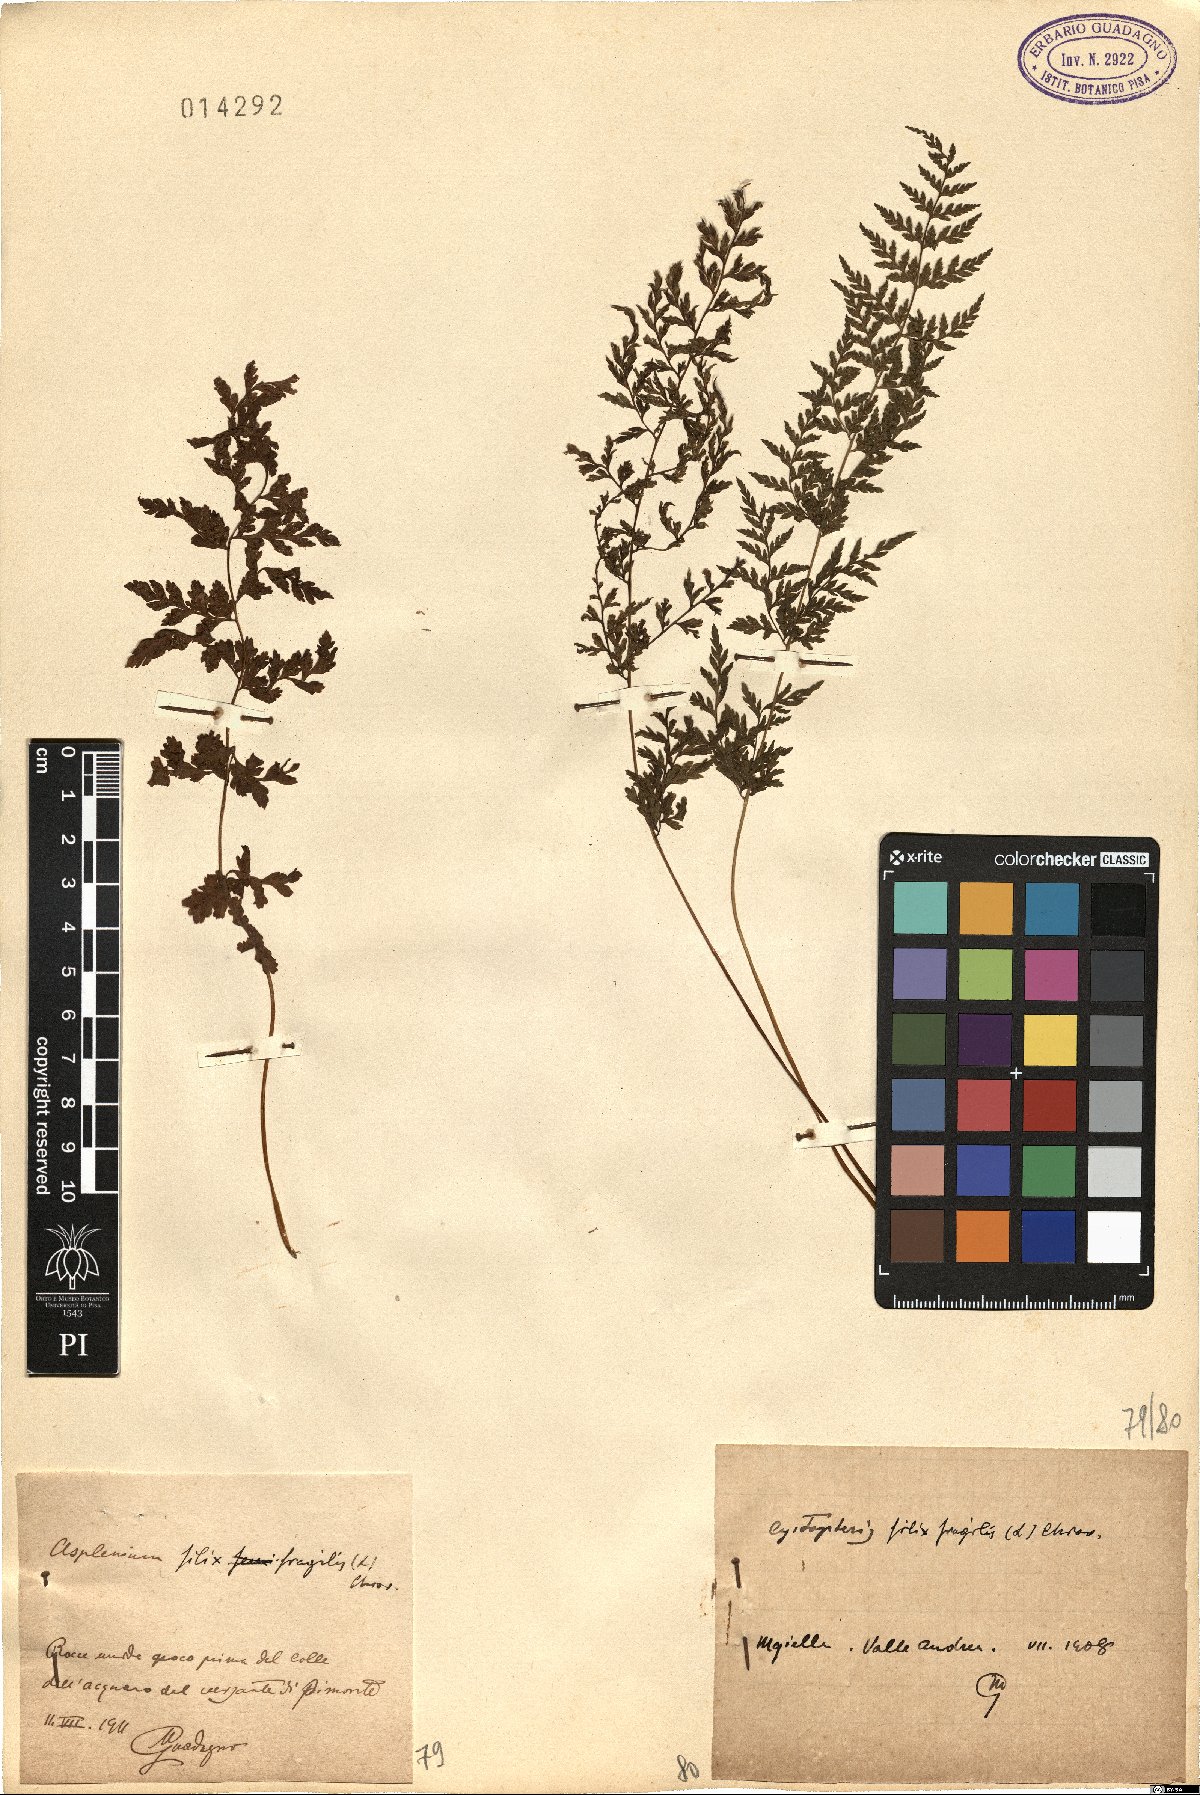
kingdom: Plantae
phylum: Tracheophyta
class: Polypodiopsida
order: Polypodiales
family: Cystopteridaceae
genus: Cystopteris
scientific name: Cystopteris fragilis
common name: Brittle bladder fern
